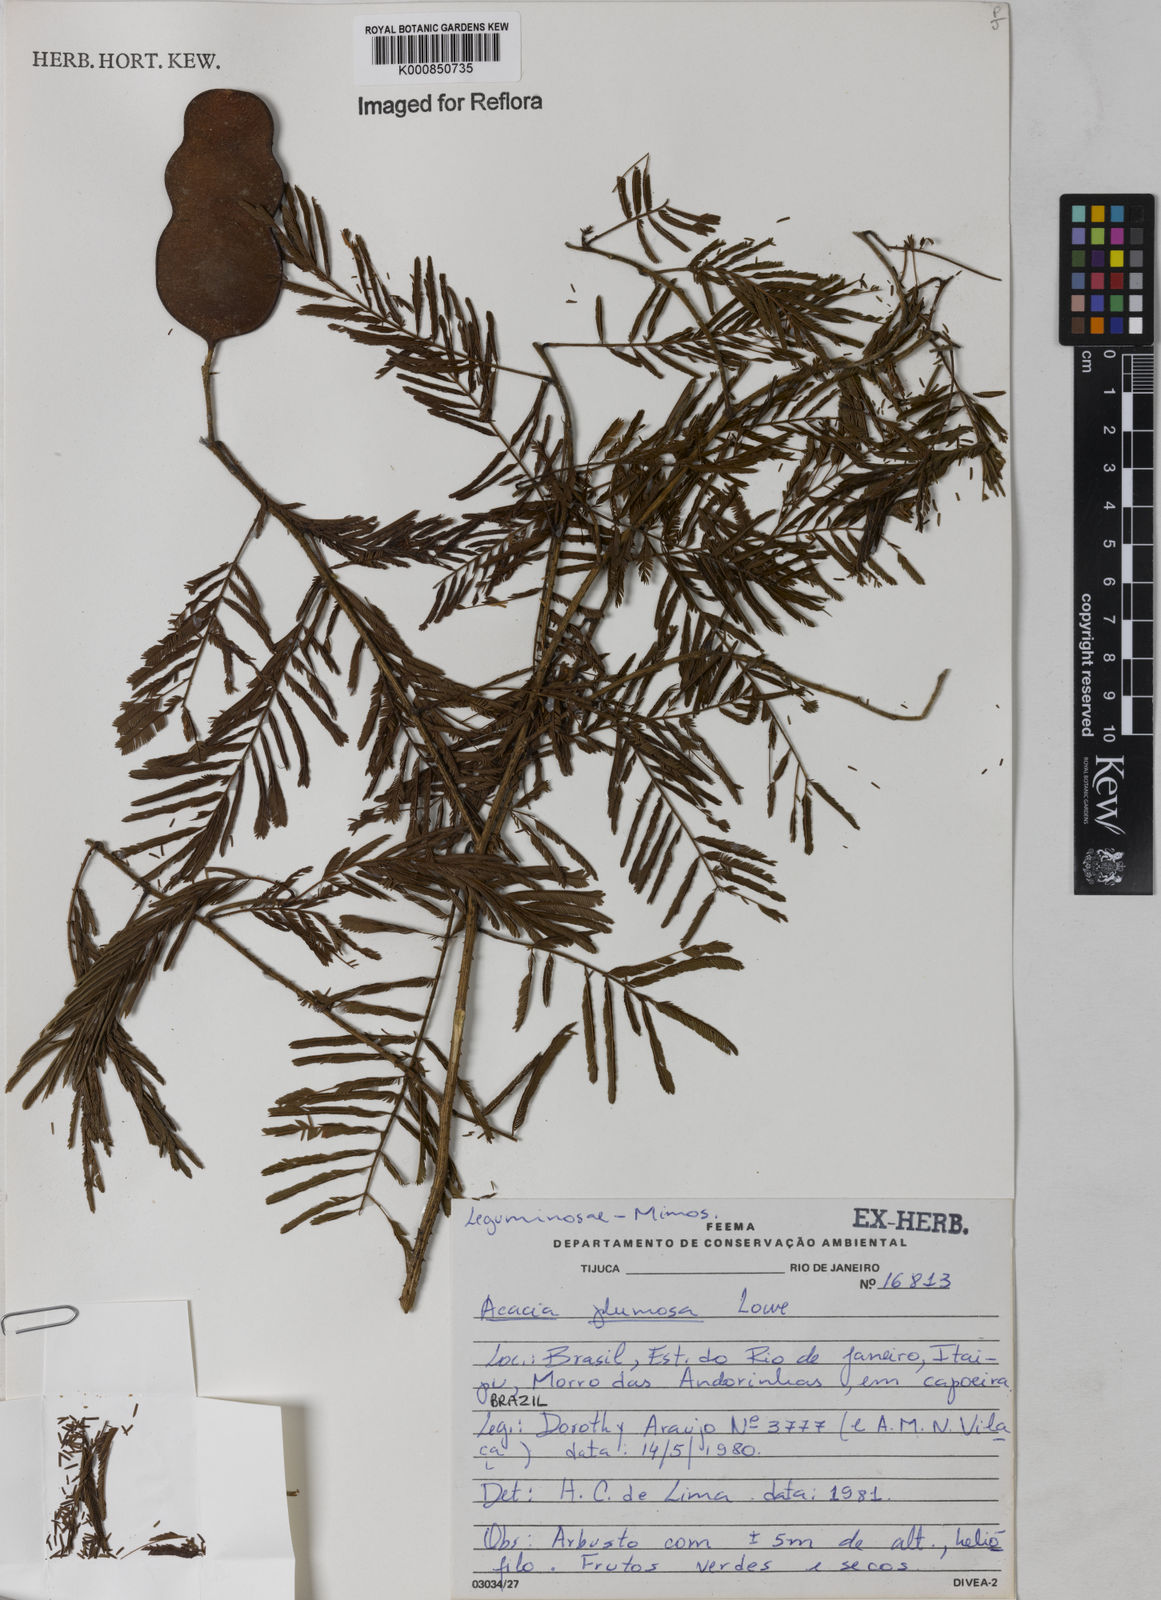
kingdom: Plantae
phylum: Tracheophyta
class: Magnoliopsida
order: Fabales
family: Fabaceae
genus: Senegalia
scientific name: Senegalia lowei
